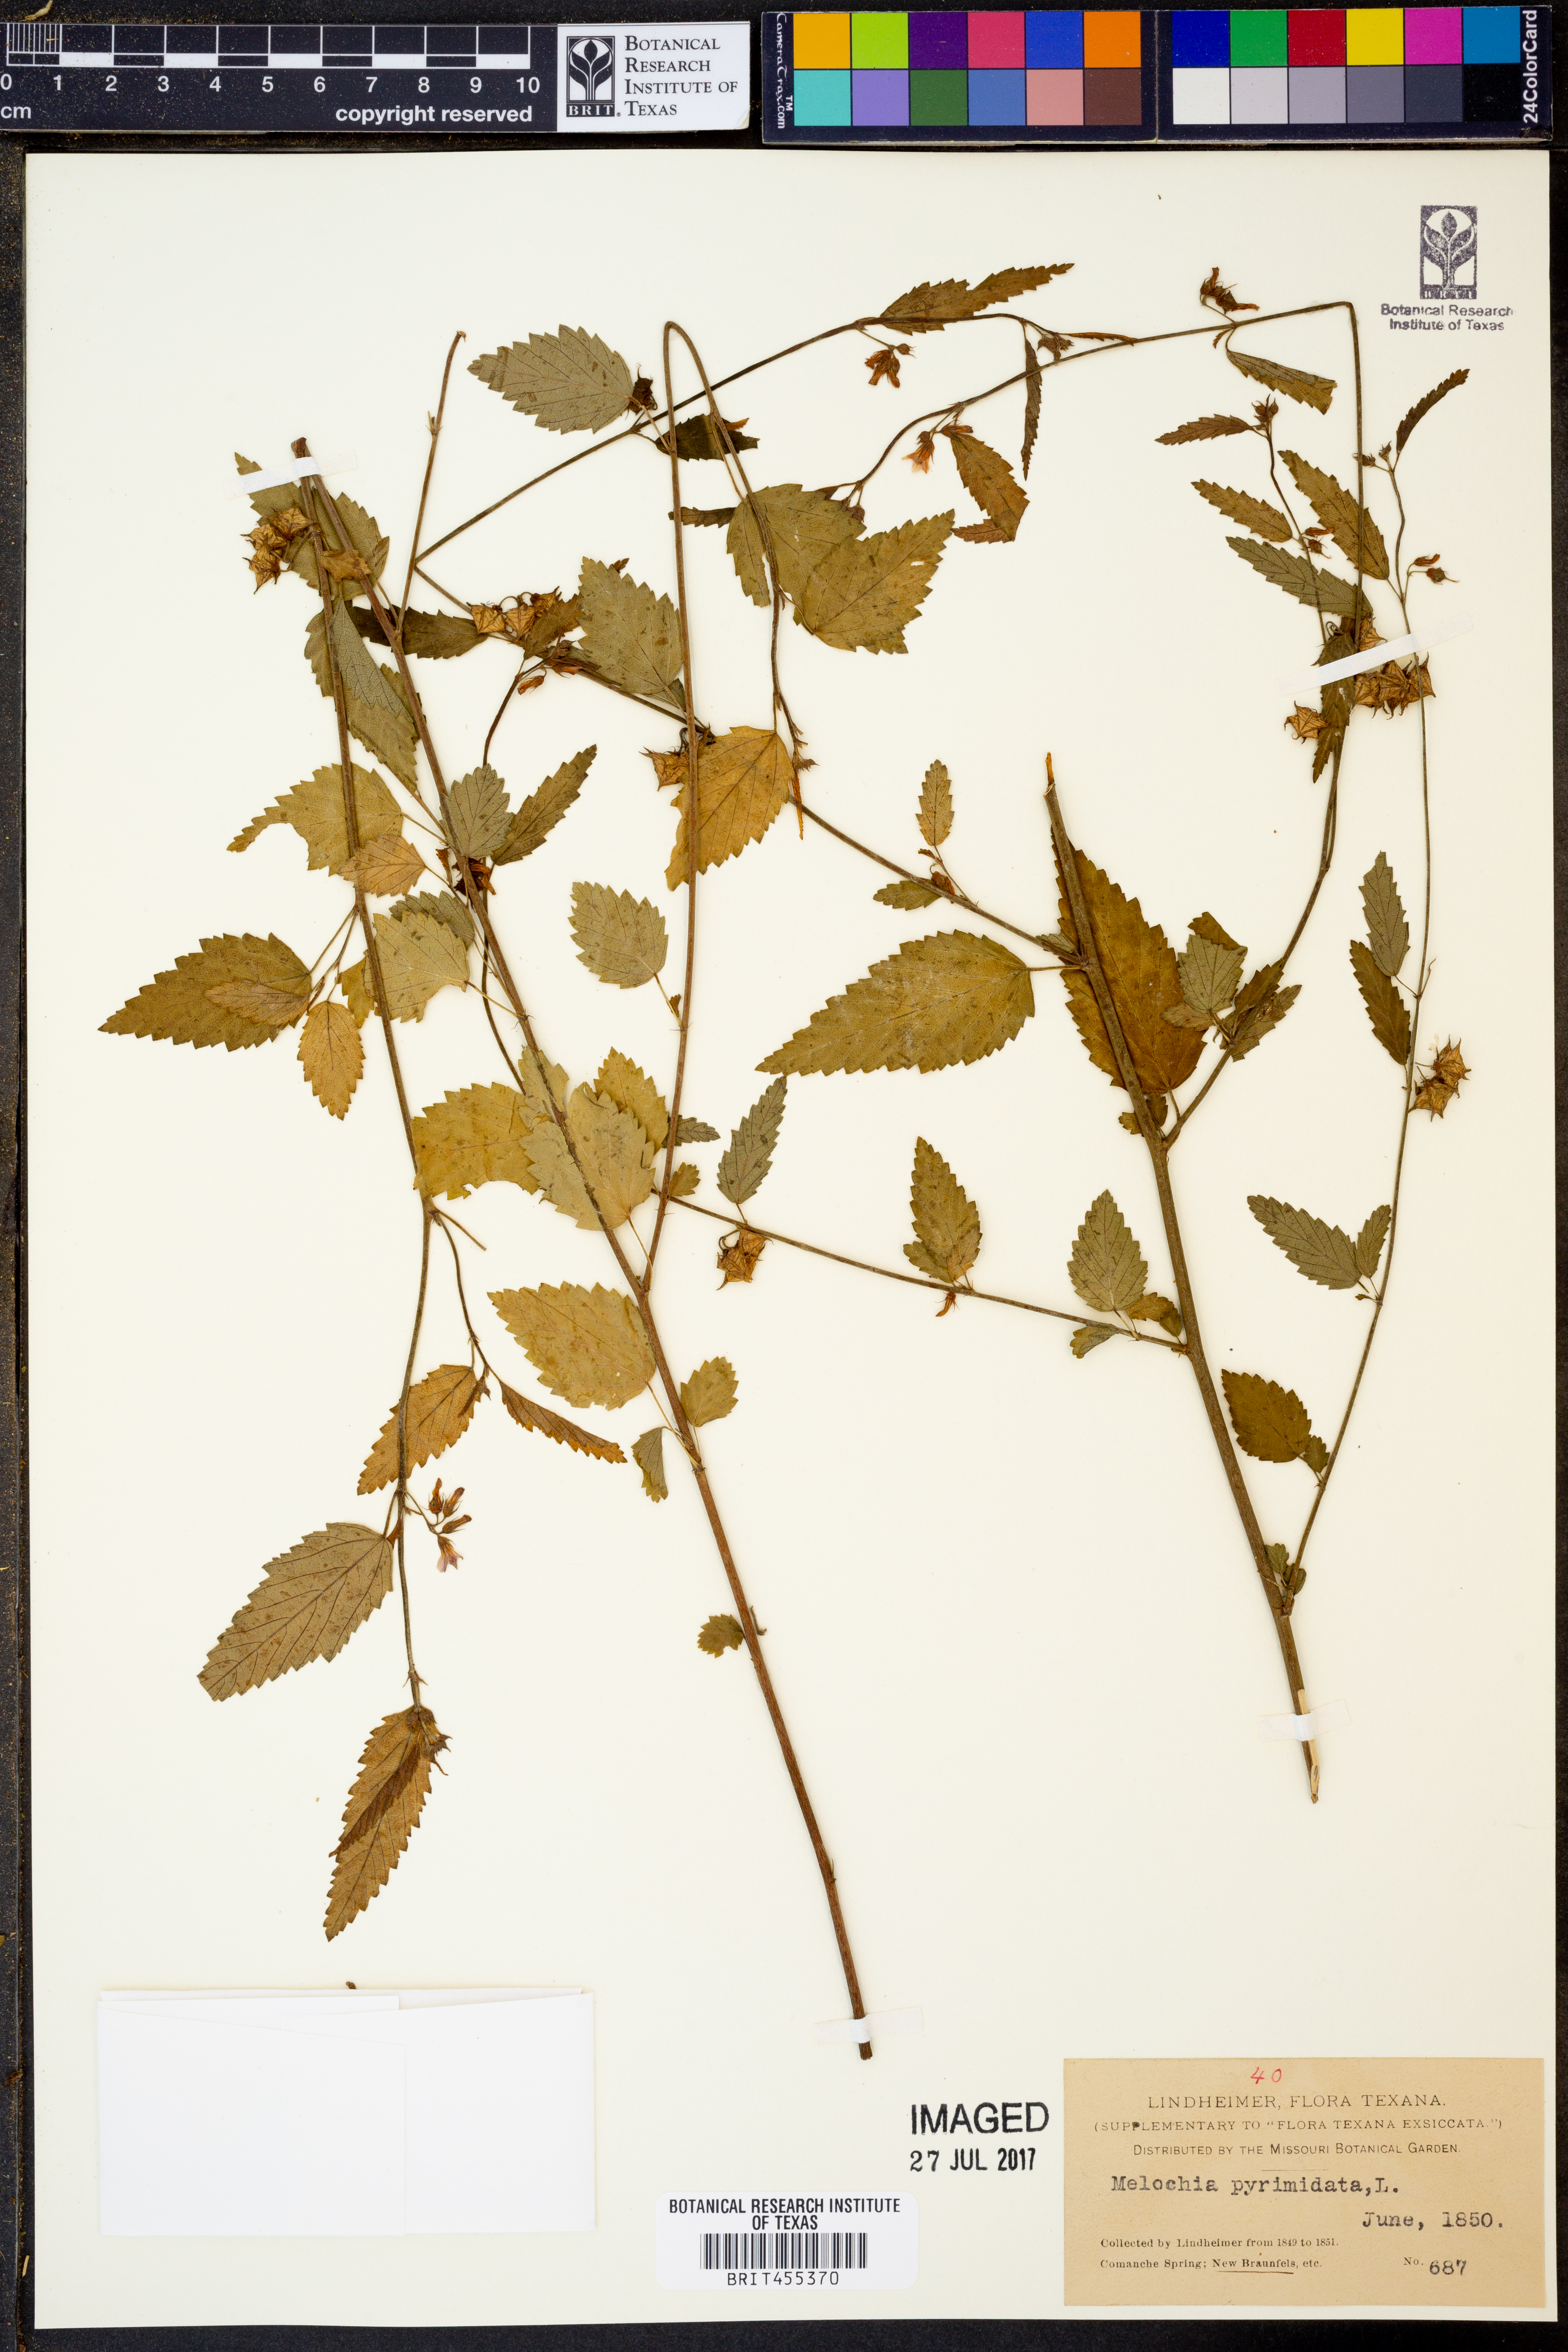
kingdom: Plantae
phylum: Tracheophyta
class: Magnoliopsida
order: Malvales
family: Malvaceae
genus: Melochia
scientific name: Melochia pyramidata
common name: Pyramidflower
